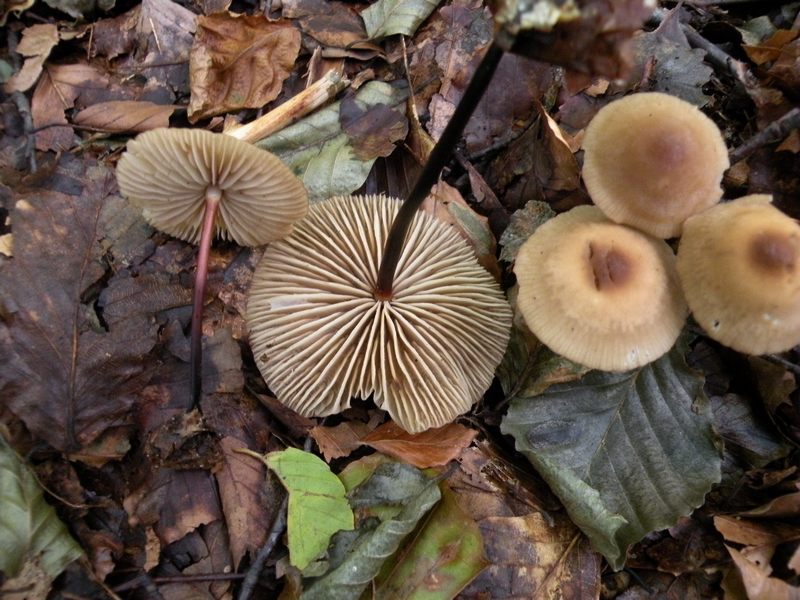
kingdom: Fungi
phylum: Basidiomycota
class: Agaricomycetes
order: Agaricales
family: Marasmiaceae
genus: Marasmius
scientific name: Marasmius cohaerens
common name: hornstokket bruskhat
